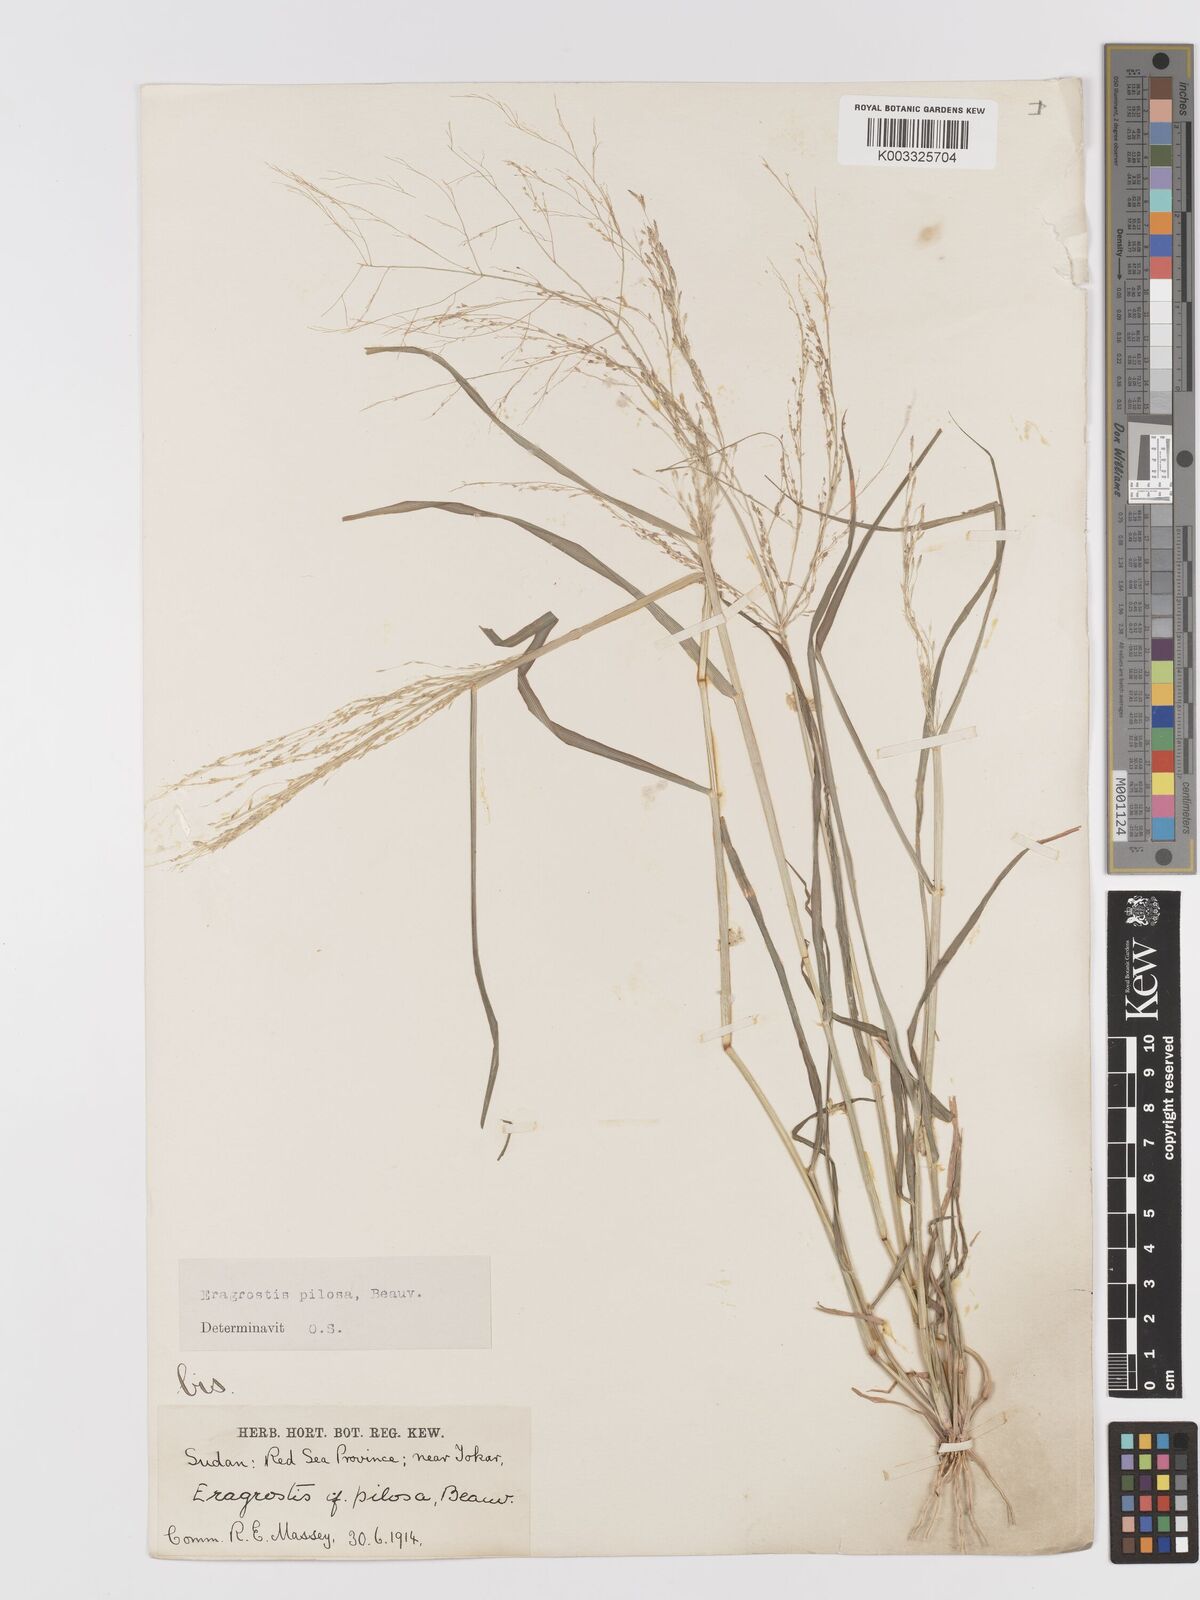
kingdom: Plantae
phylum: Tracheophyta
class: Liliopsida
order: Poales
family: Poaceae
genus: Eragrostis
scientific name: Eragrostis pilosa
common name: Indian lovegrass
